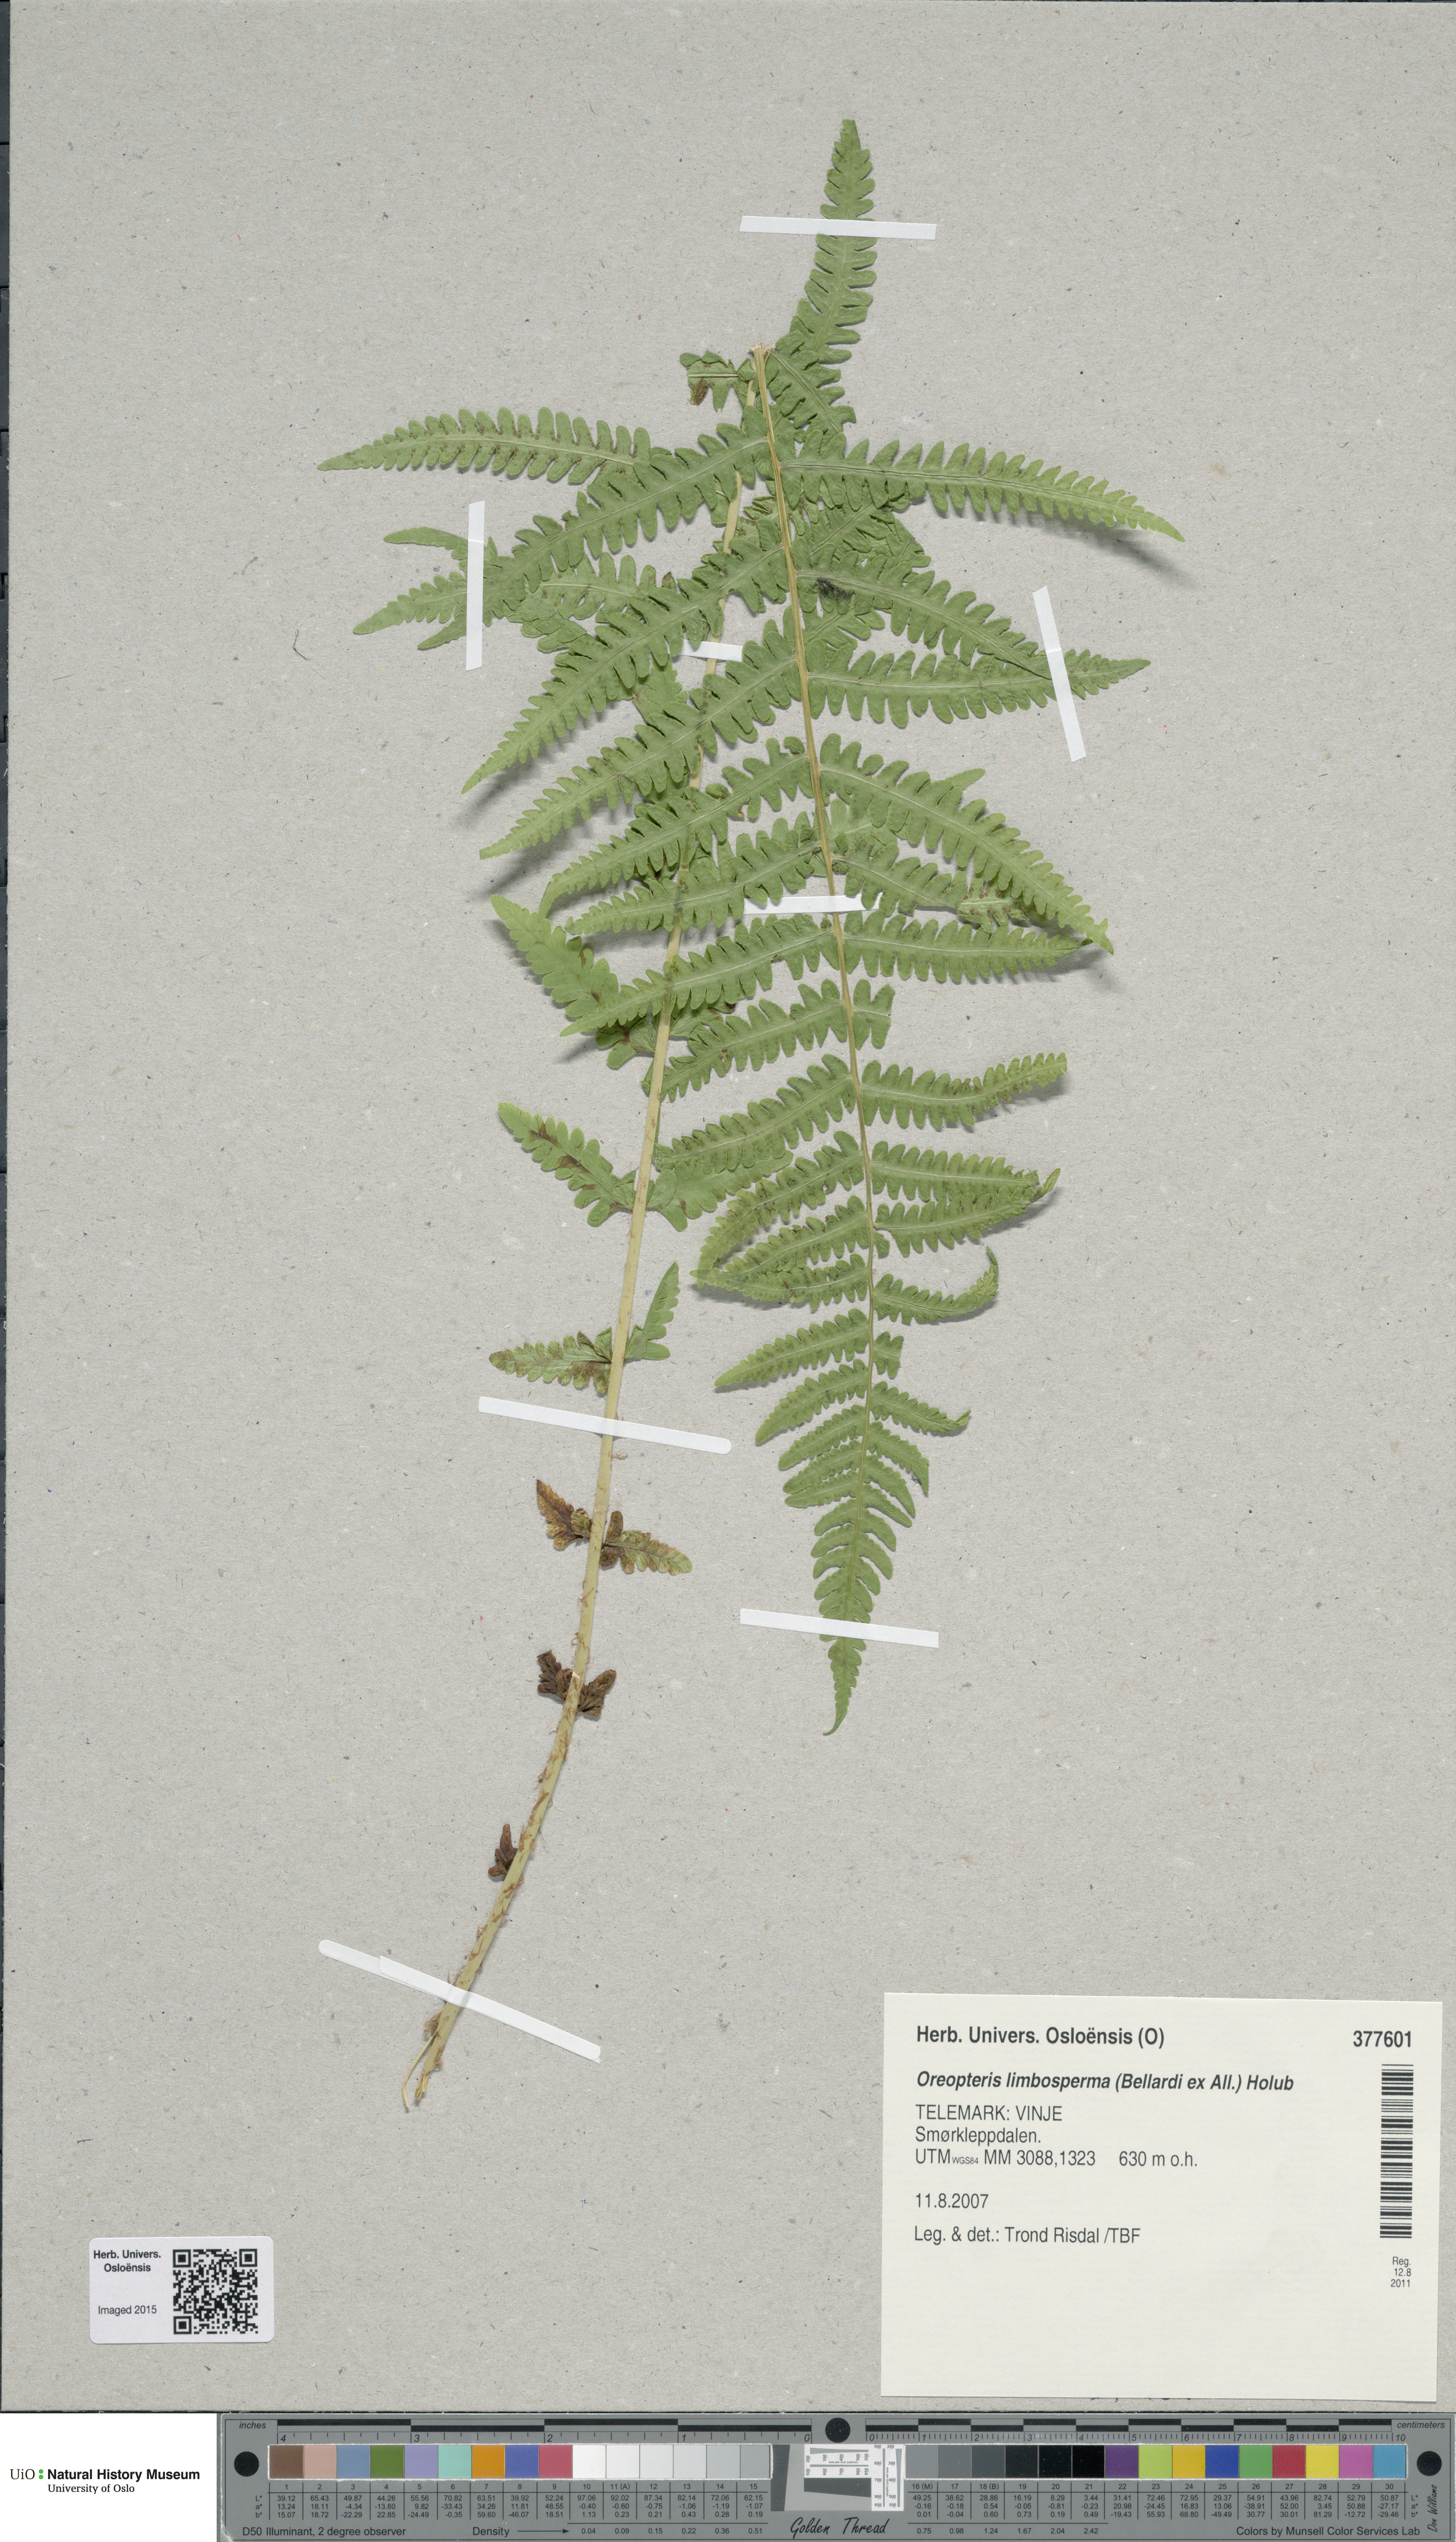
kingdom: Plantae
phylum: Tracheophyta
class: Polypodiopsida
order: Polypodiales
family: Thelypteridaceae
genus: Oreopteris
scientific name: Oreopteris limbosperma
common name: Lemon-scented fern
